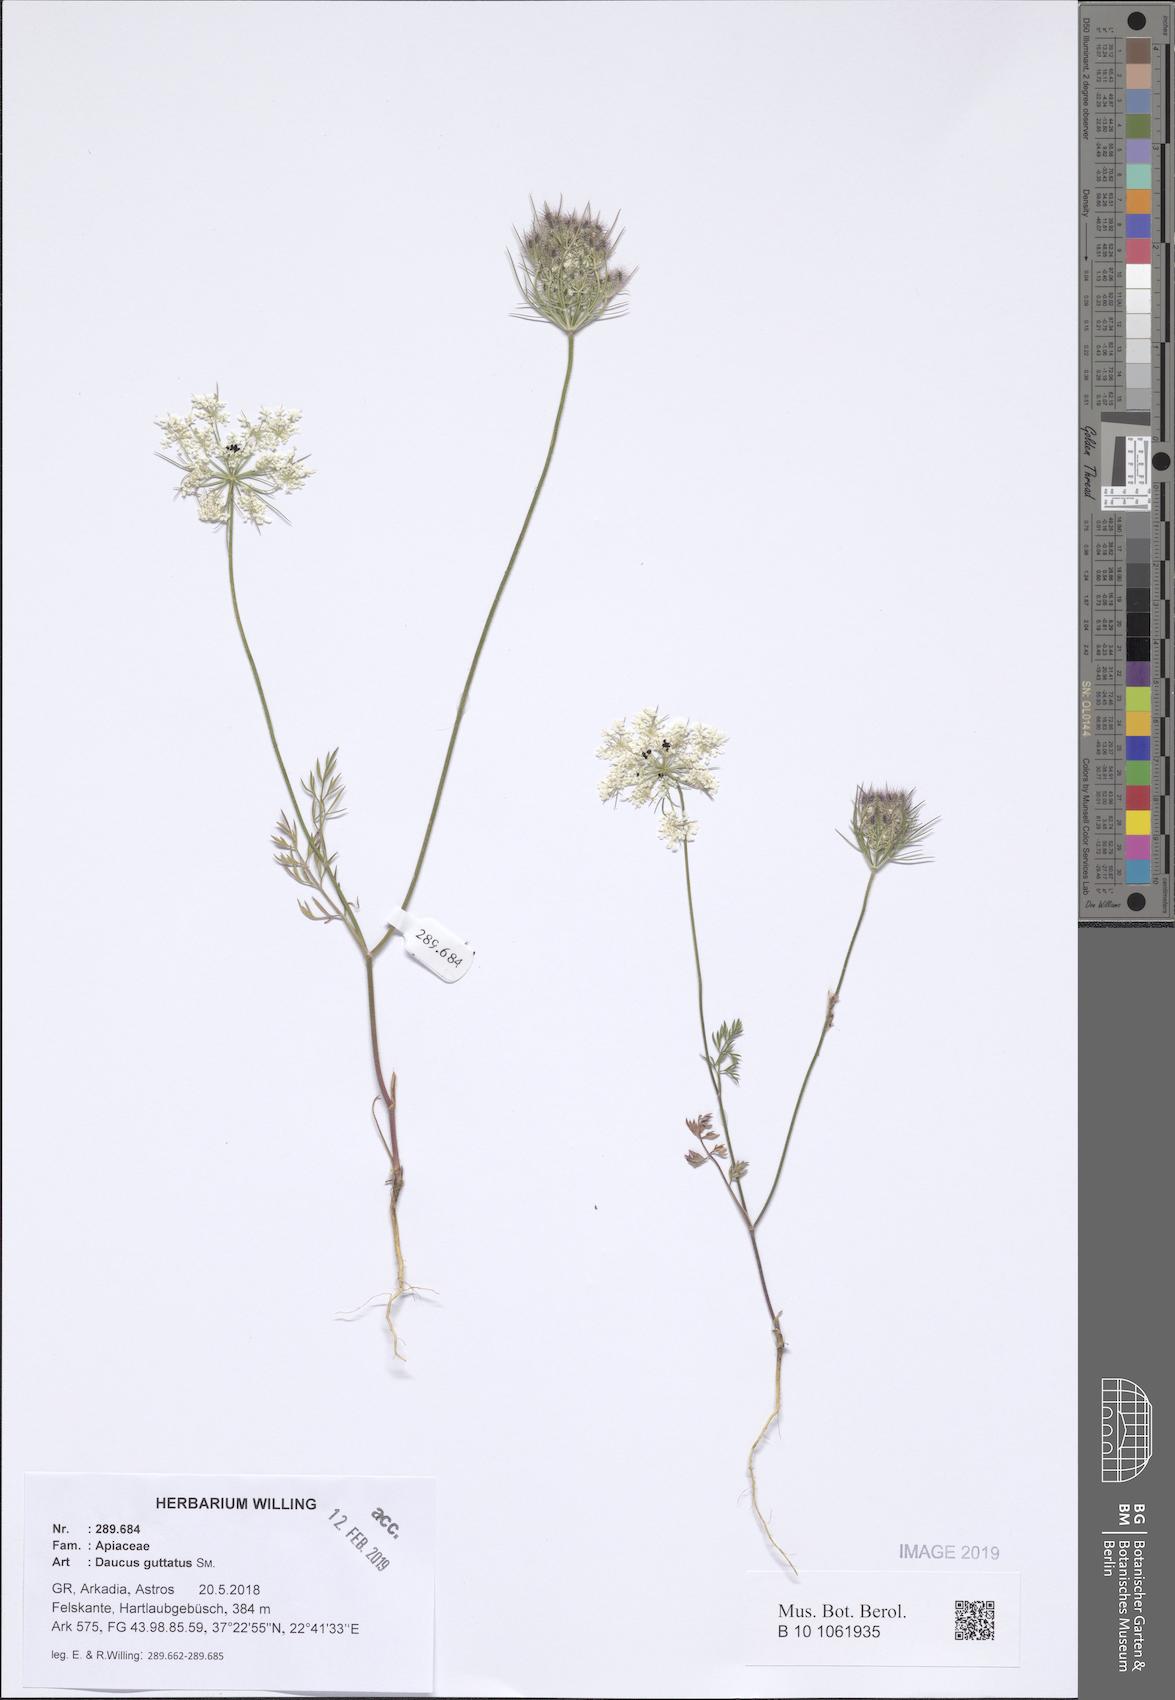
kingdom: Plantae
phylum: Tracheophyta
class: Magnoliopsida
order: Apiales
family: Apiaceae
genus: Daucus
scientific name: Daucus guttatus
